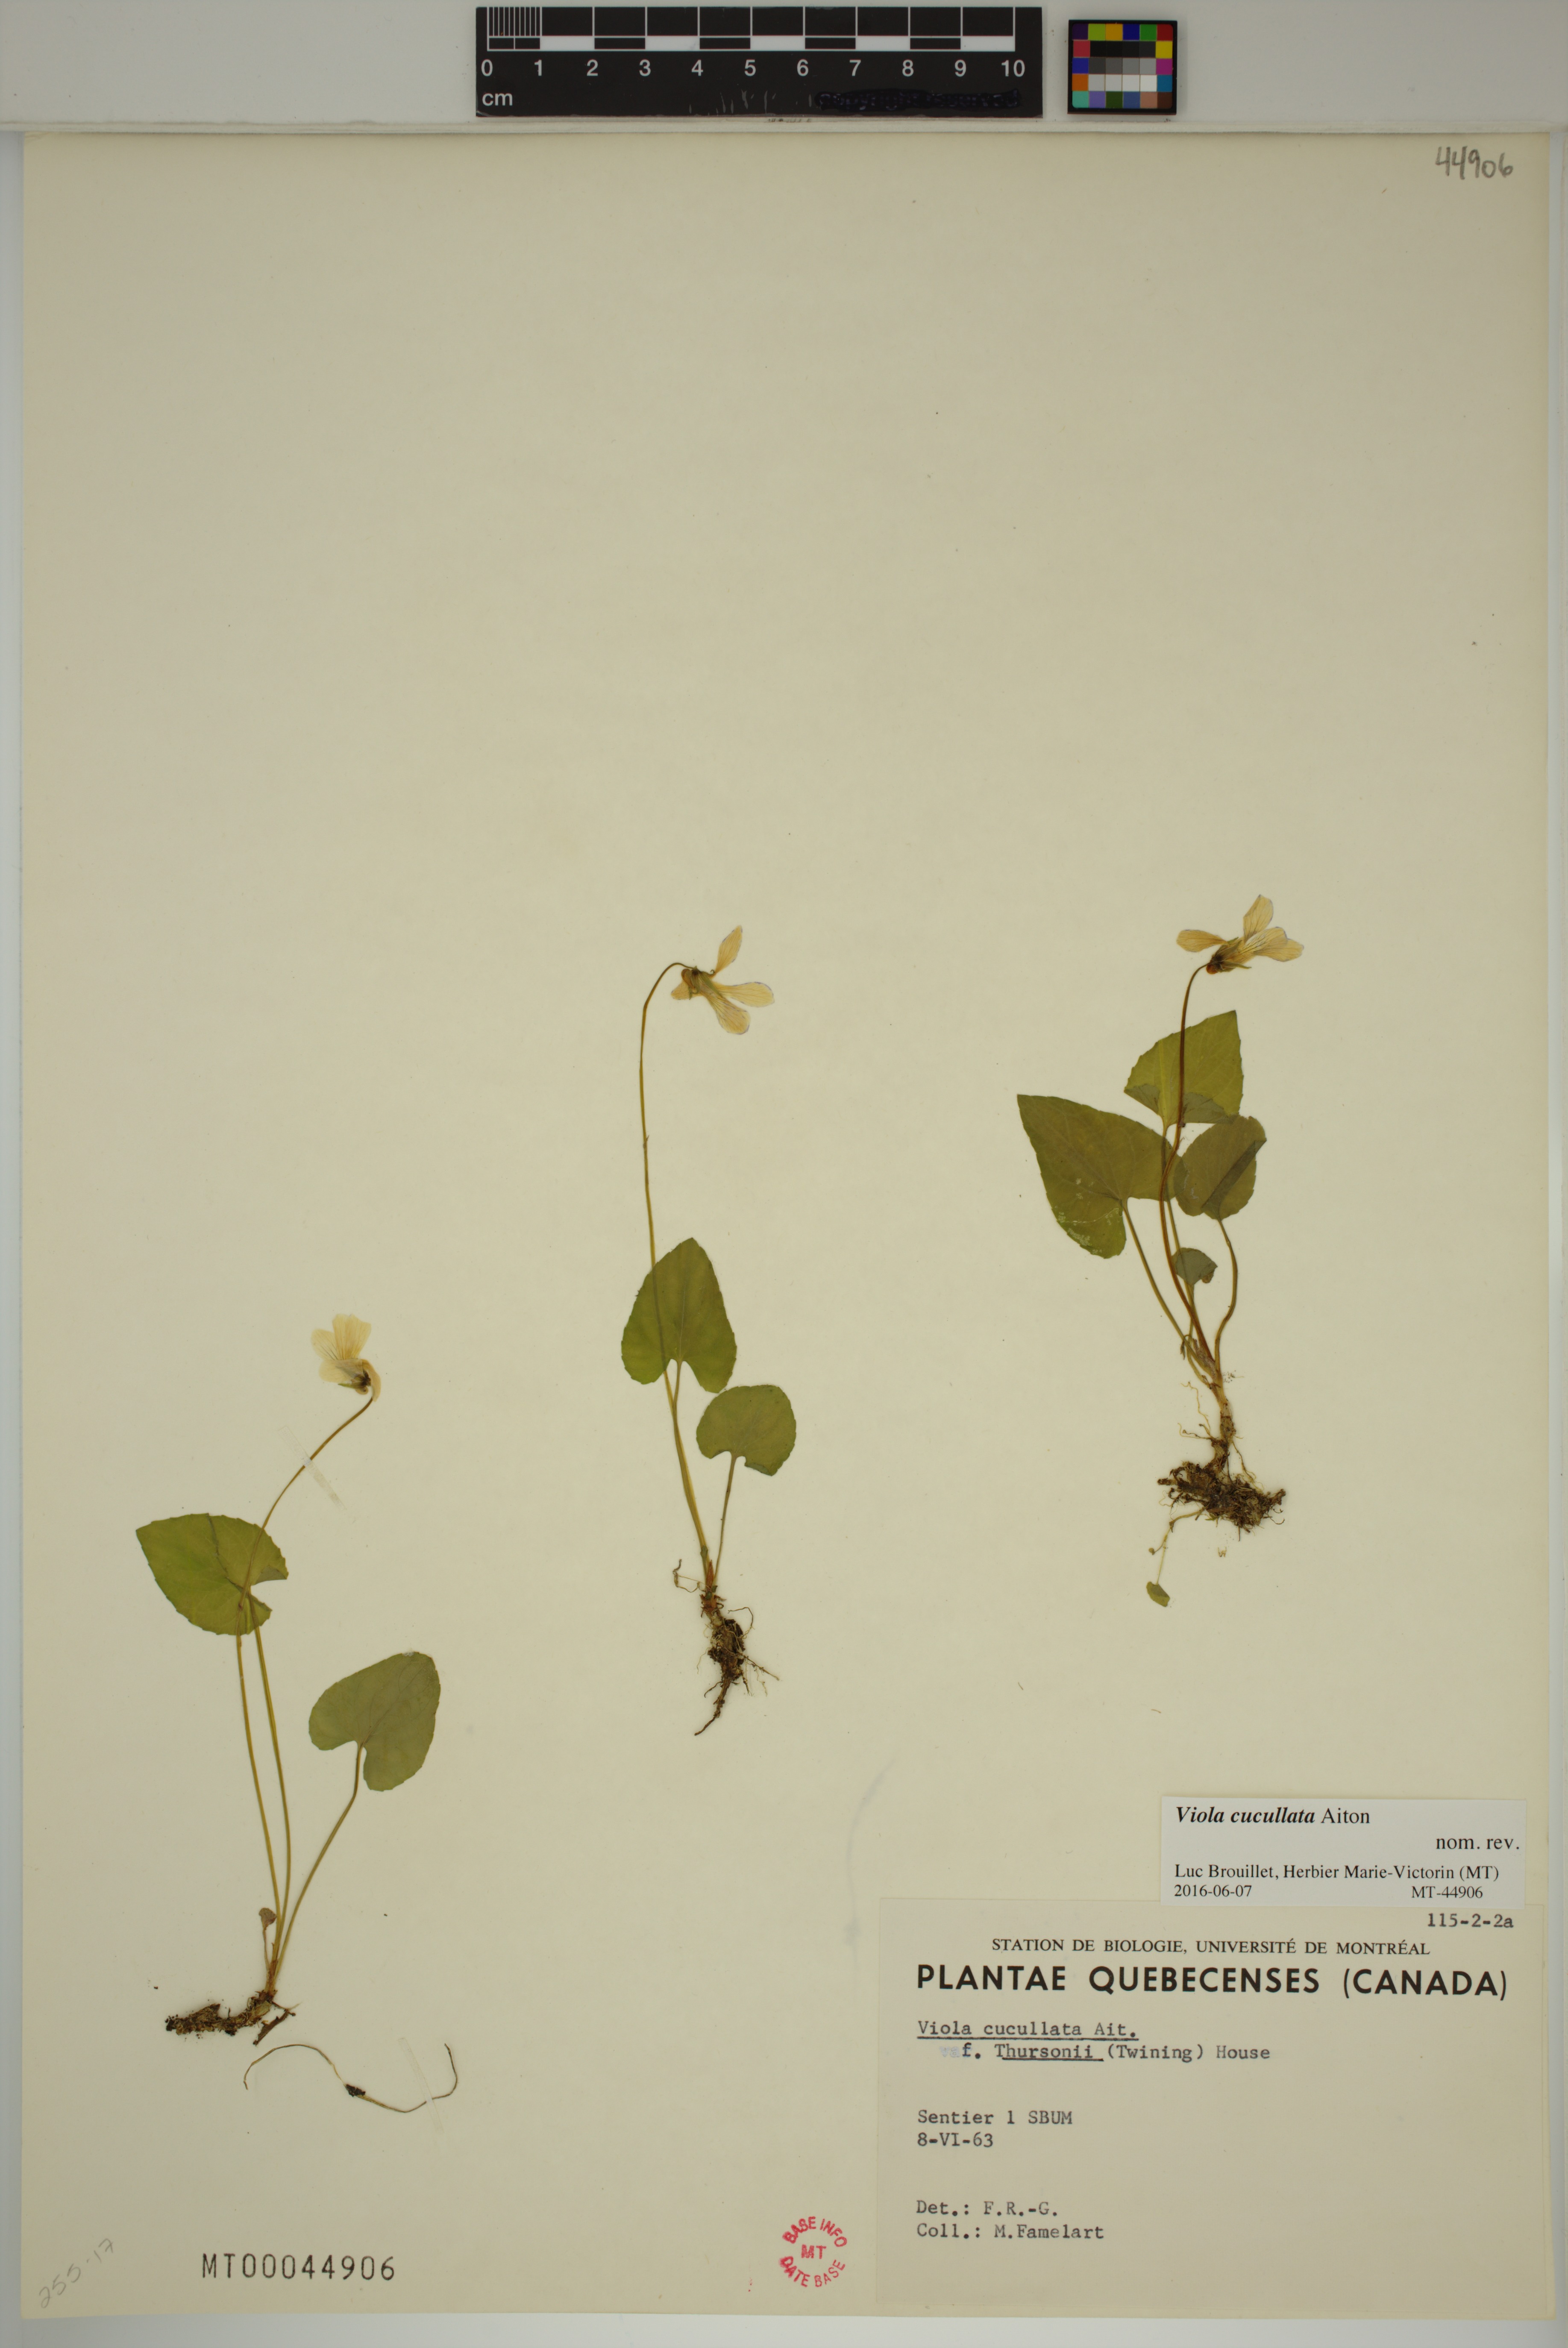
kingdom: Plantae
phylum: Tracheophyta
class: Magnoliopsida
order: Malpighiales
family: Violaceae
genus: Viola
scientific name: Viola cucullata
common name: Marsh blue violet
